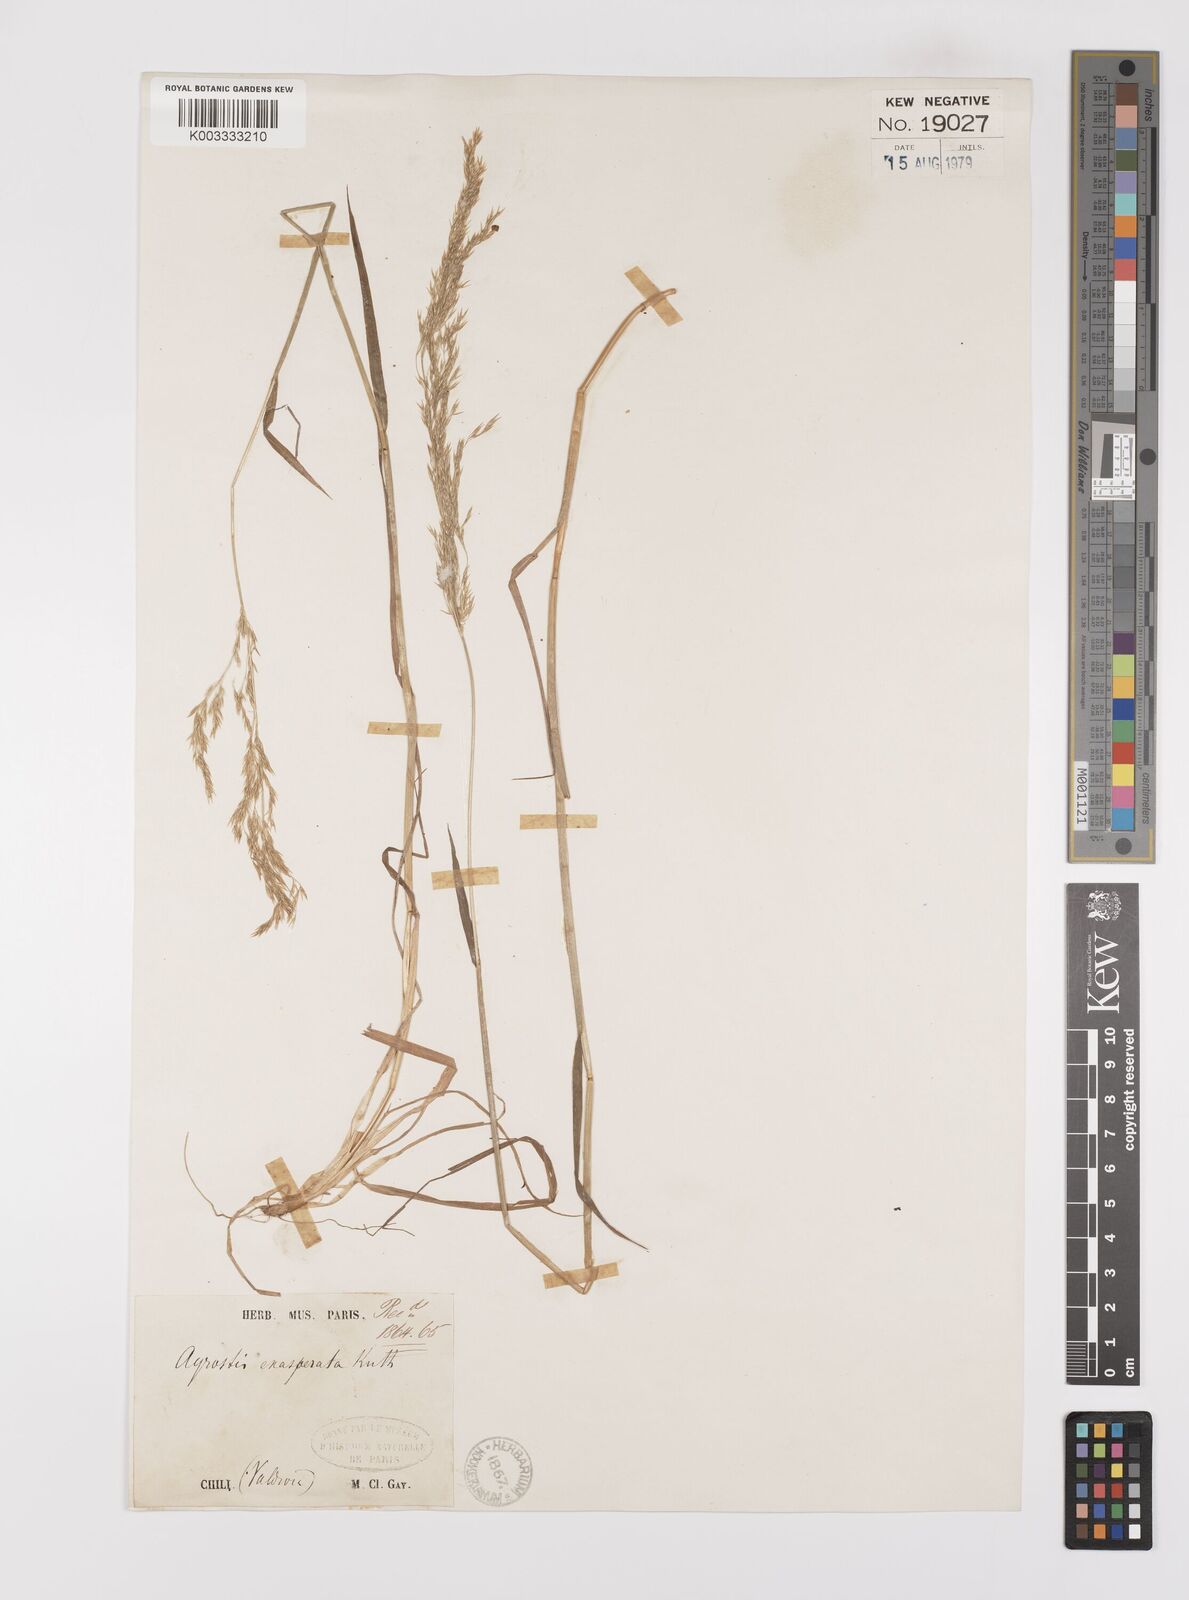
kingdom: Plantae
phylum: Tracheophyta
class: Liliopsida
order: Poales
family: Poaceae
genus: Polypogon
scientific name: Polypogon exasperatus
